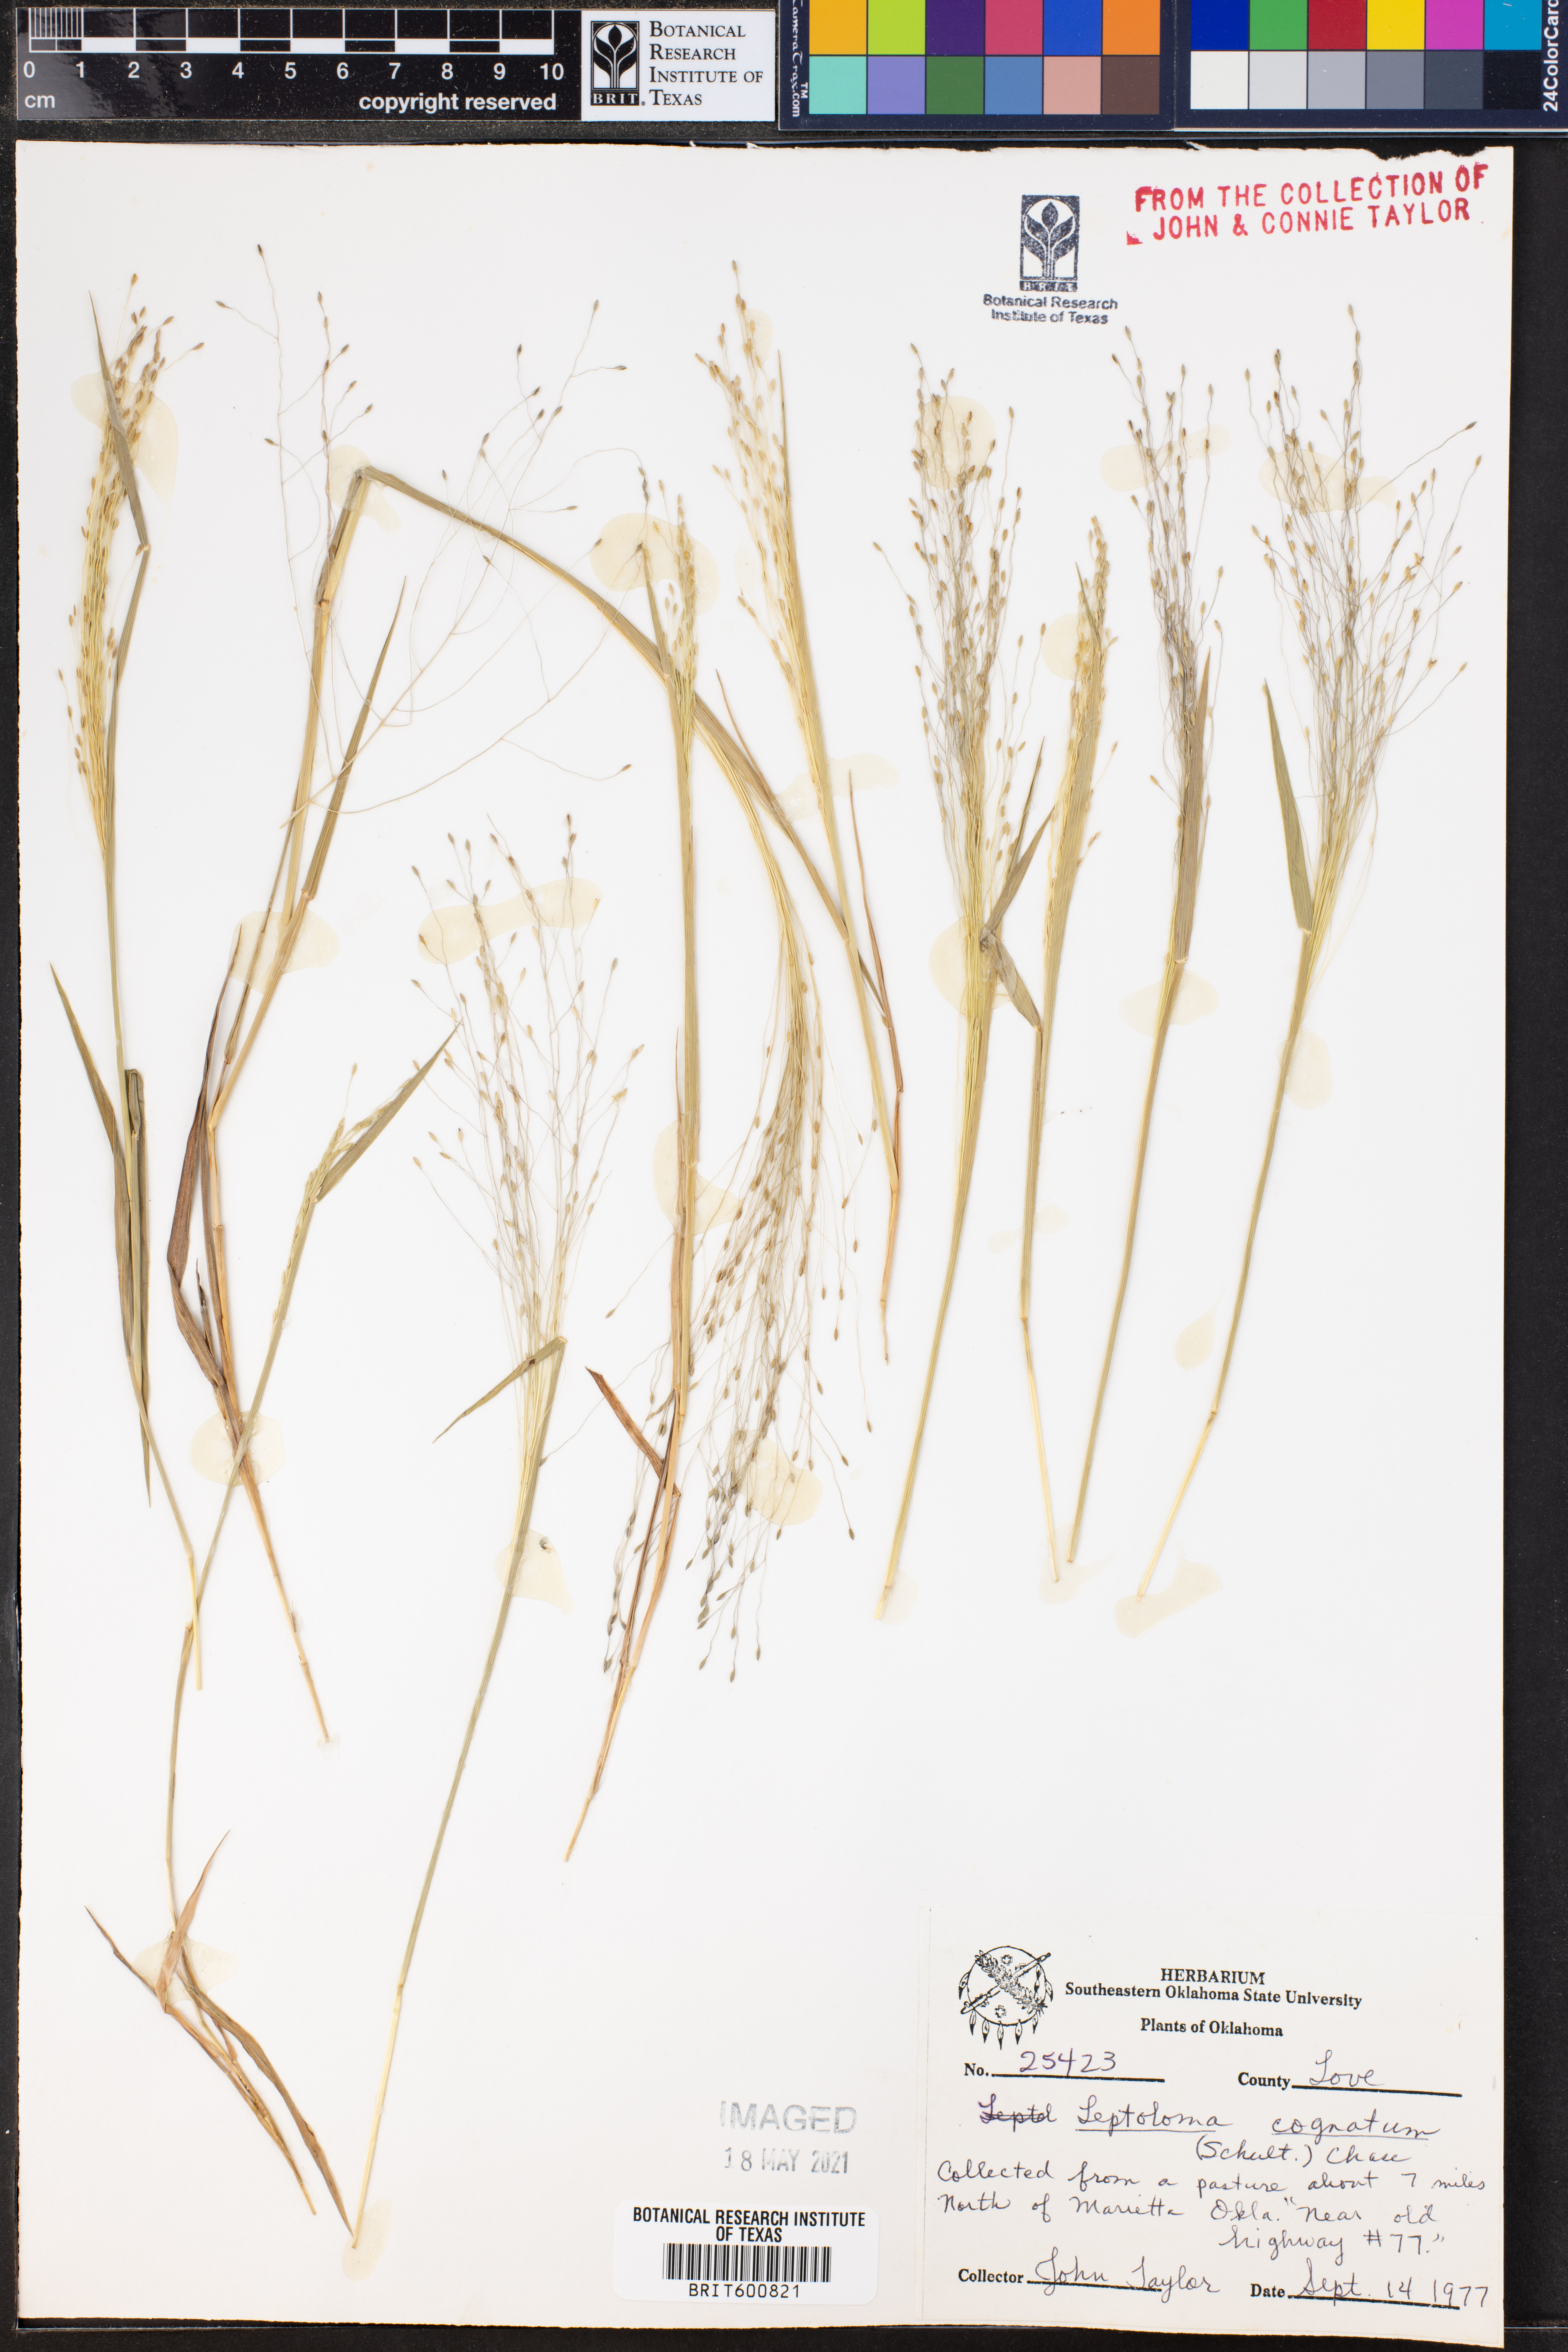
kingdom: Plantae
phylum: Tracheophyta
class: Liliopsida
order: Poales
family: Poaceae
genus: Digitaria
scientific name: Digitaria cognata
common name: Fall witchgrass
